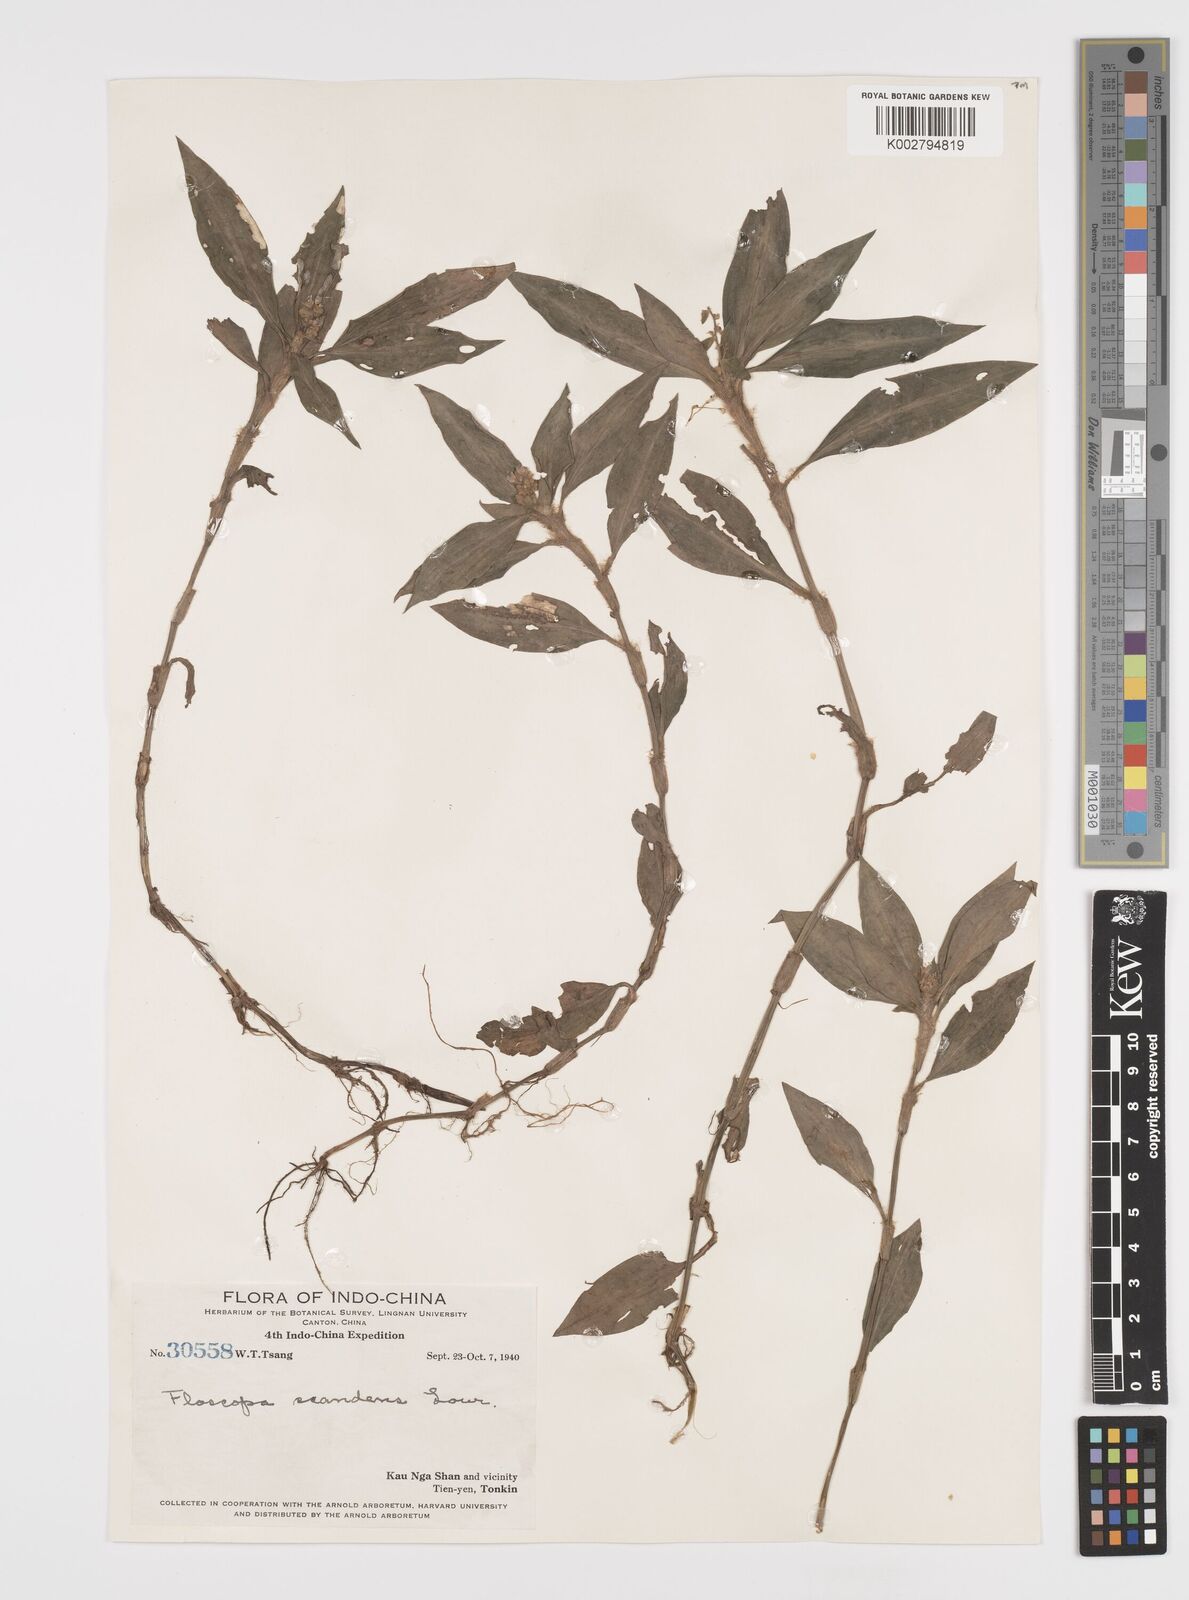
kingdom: Plantae
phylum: Tracheophyta
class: Liliopsida
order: Commelinales
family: Commelinaceae
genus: Floscopa
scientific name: Floscopa scandens
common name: Climbing flower cup
